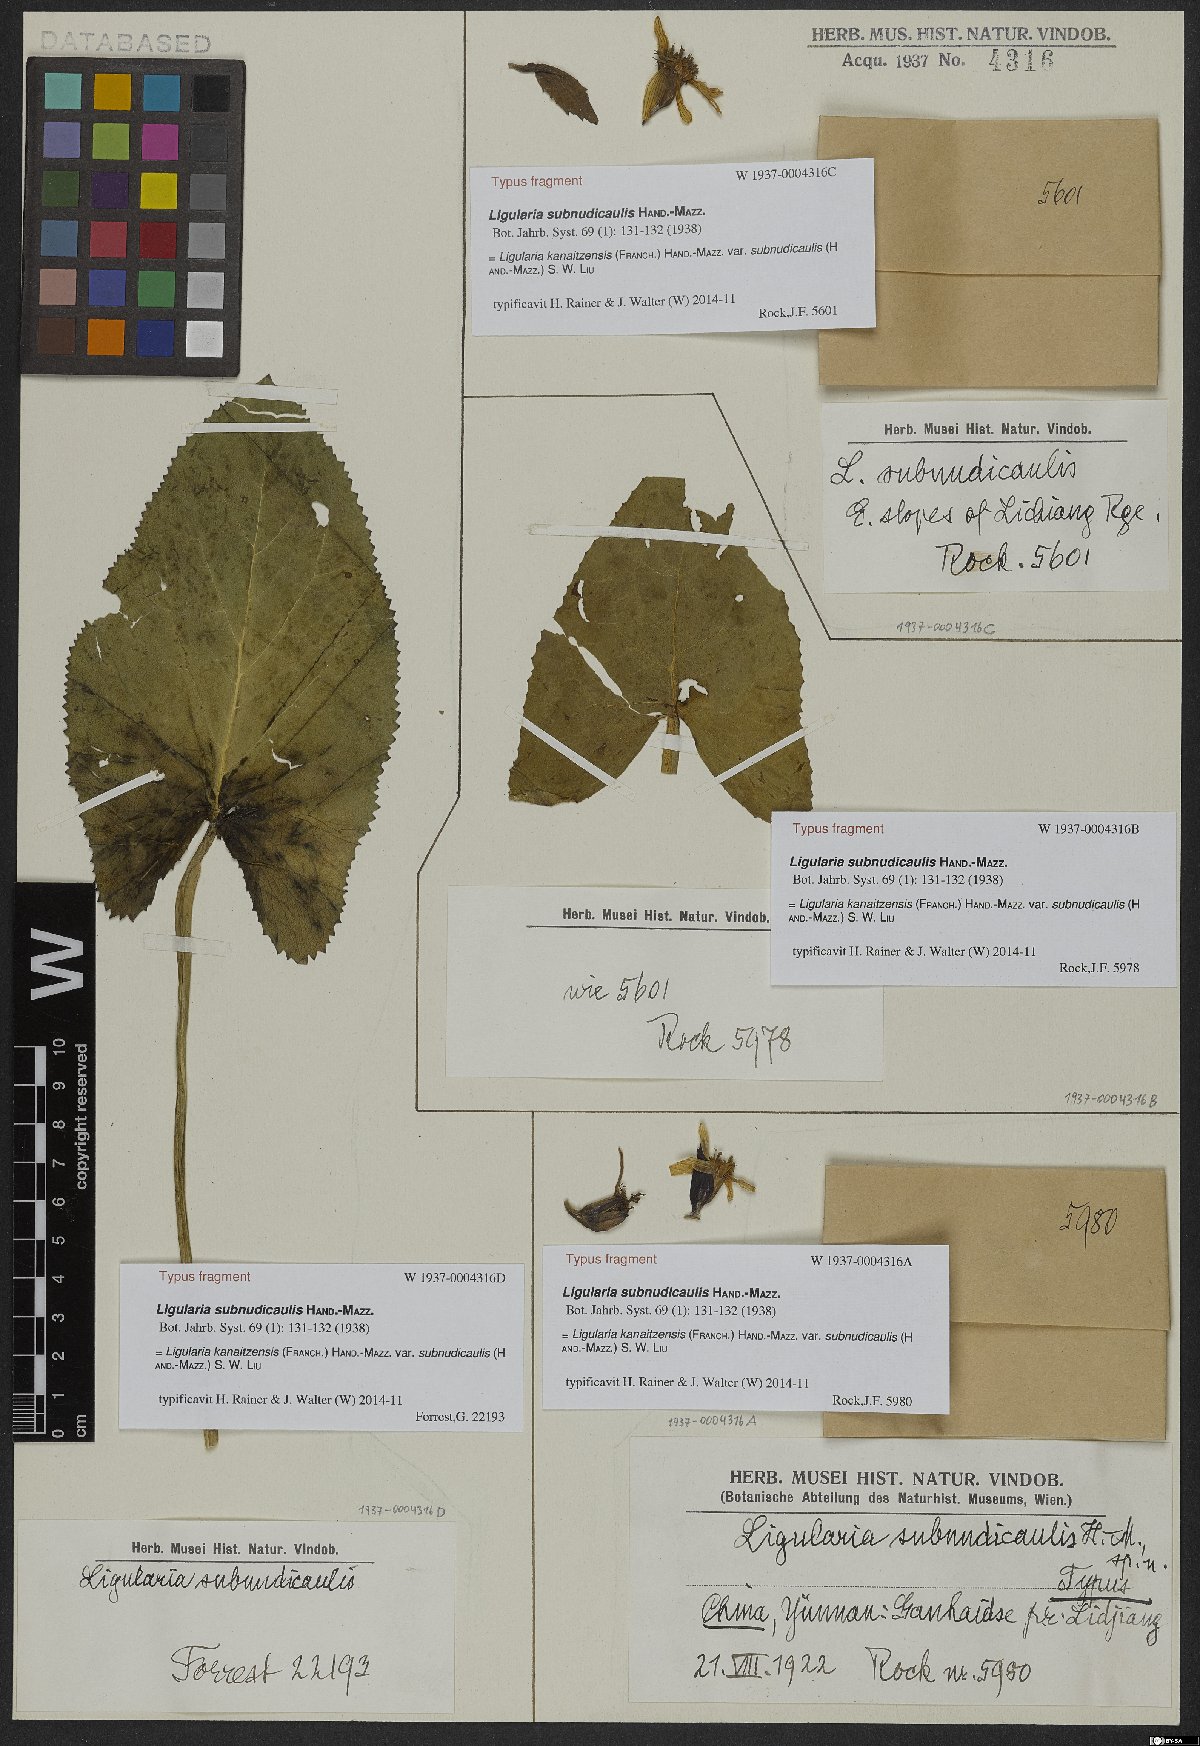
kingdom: Plantae
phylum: Tracheophyta
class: Magnoliopsida
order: Asterales
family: Asteraceae
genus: Ligularia
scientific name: Ligularia kanaitzensis
